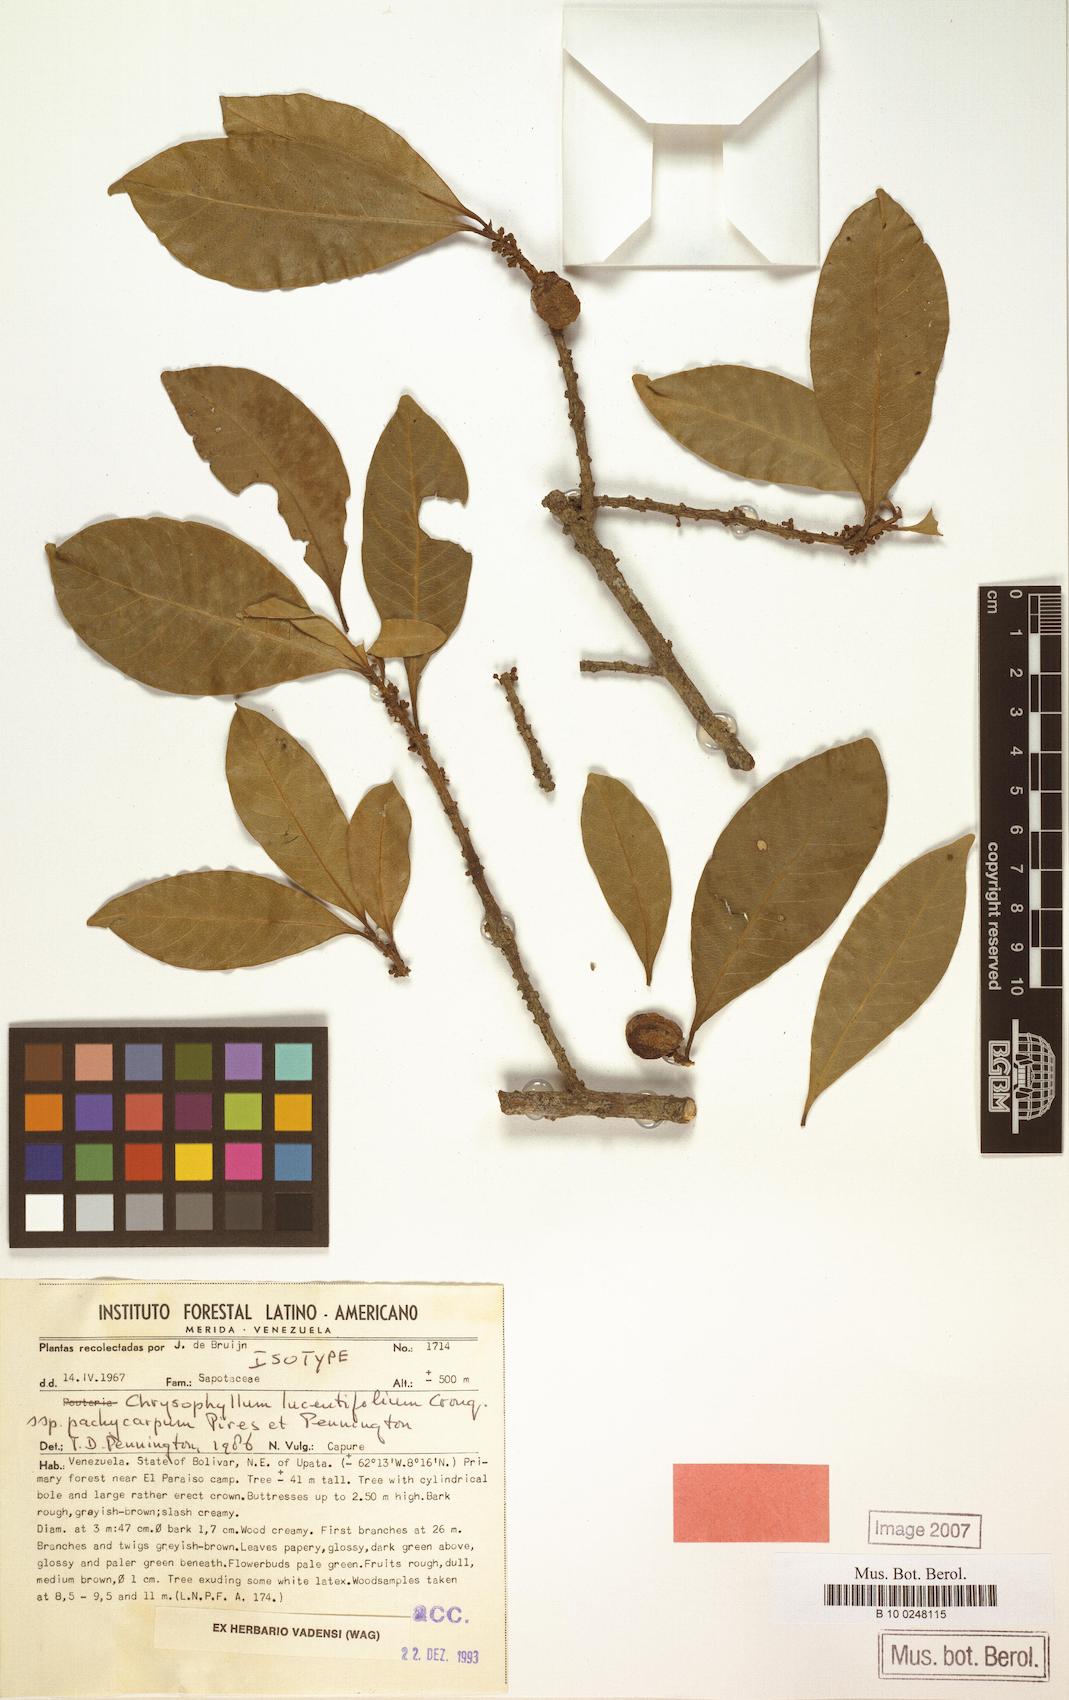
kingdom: Plantae
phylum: Tracheophyta
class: Magnoliopsida
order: Ericales
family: Sapotaceae
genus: Chrysophyllum
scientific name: Chrysophyllum lucentifolium
